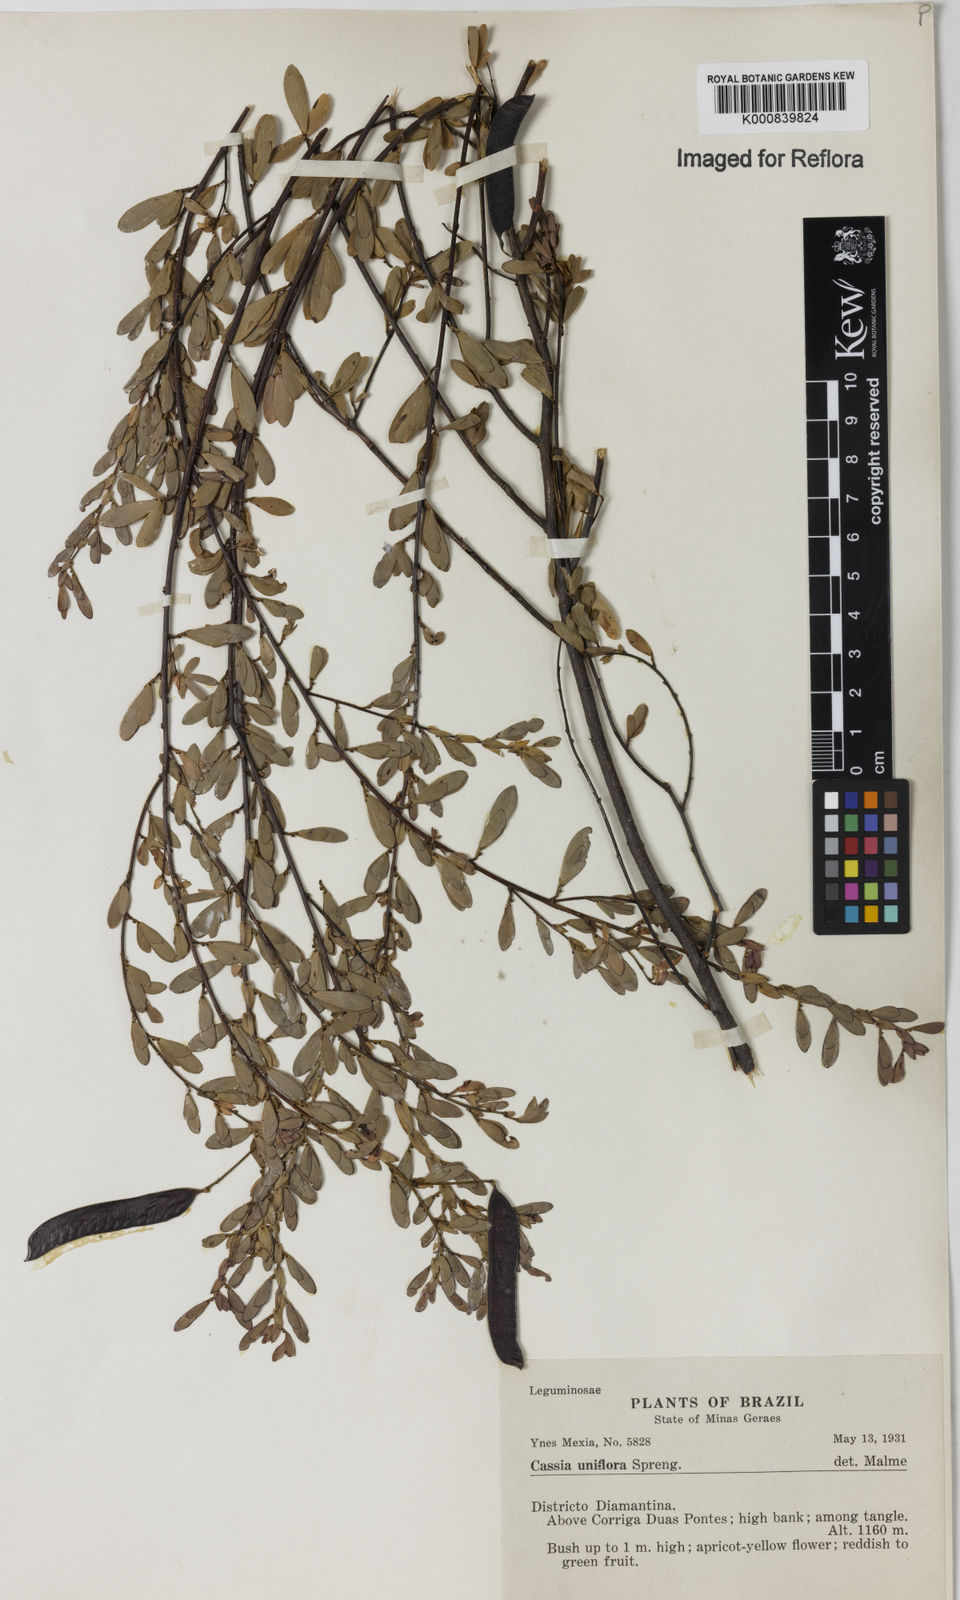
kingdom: Plantae
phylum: Tracheophyta
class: Magnoliopsida
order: Fabales
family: Fabaceae
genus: Chamaecrista
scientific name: Chamaecrista ramosa
